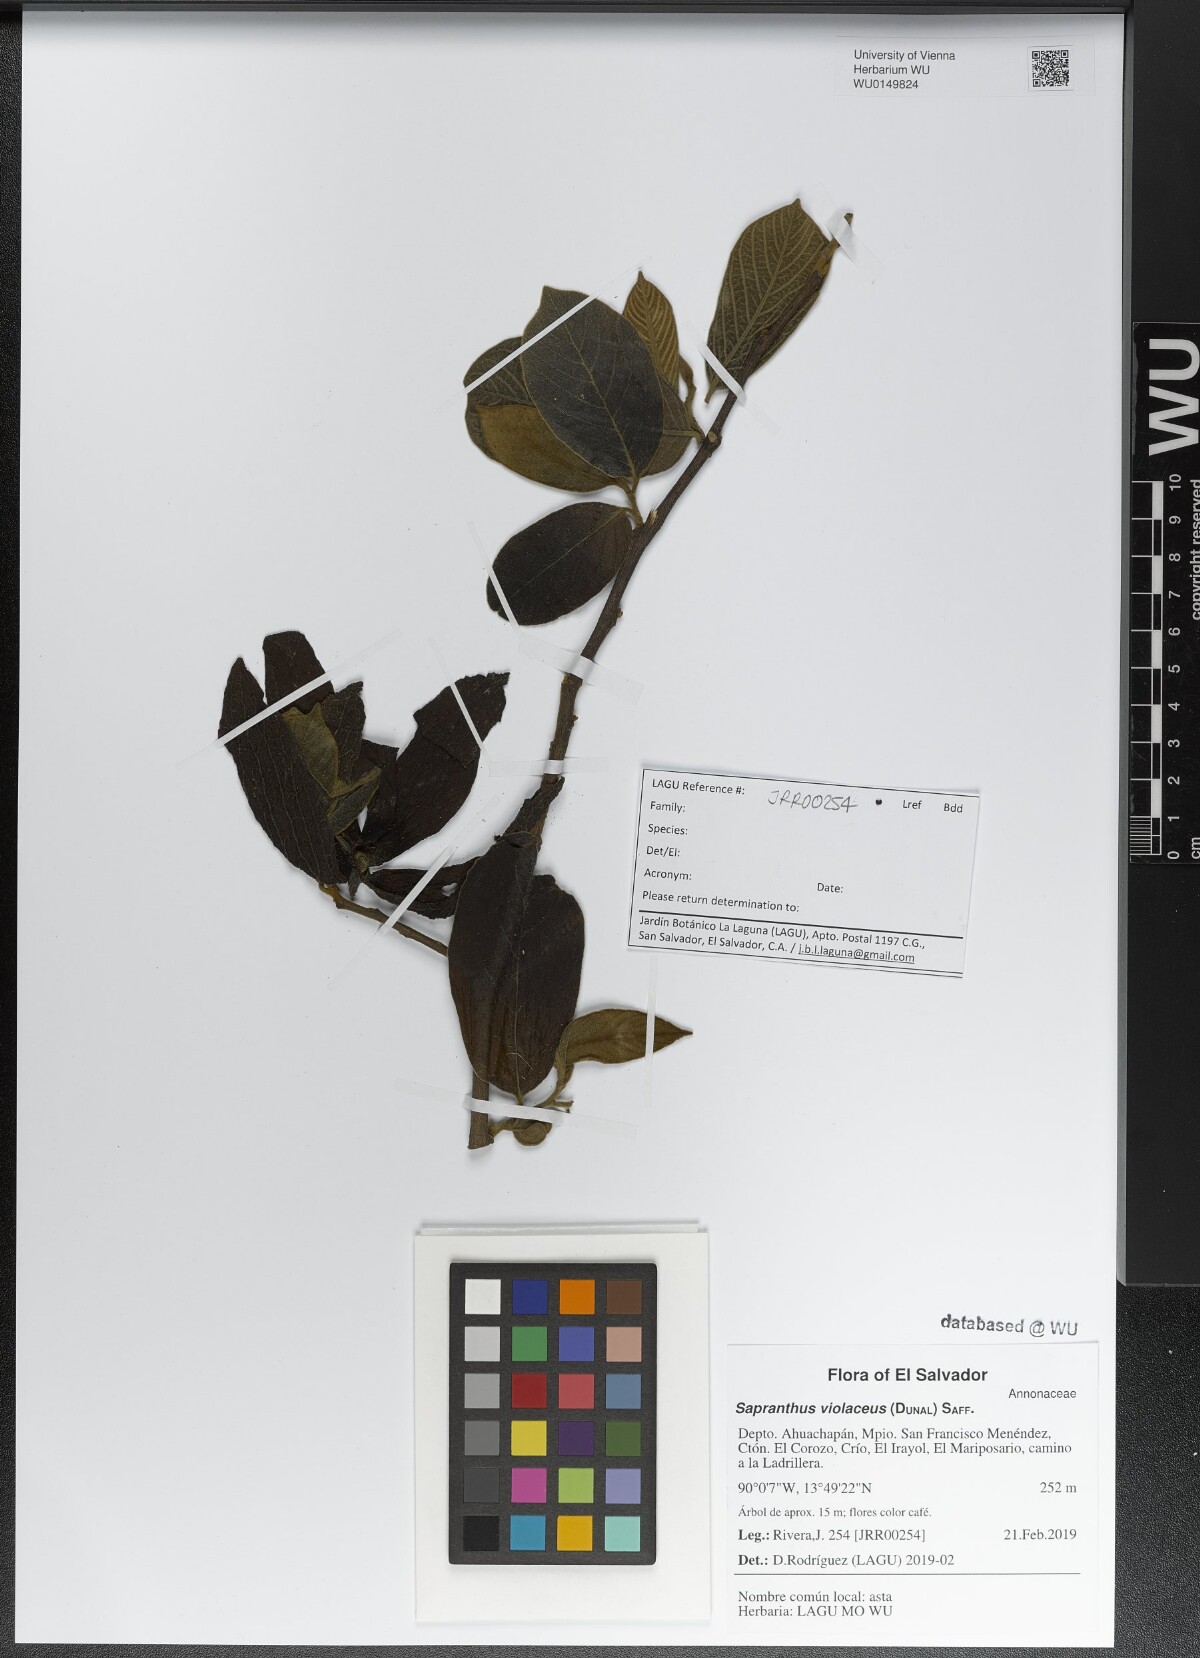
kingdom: Plantae
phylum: Tracheophyta
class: Magnoliopsida
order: Magnoliales
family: Annonaceae
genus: Sapranthus
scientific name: Sapranthus violaceus
